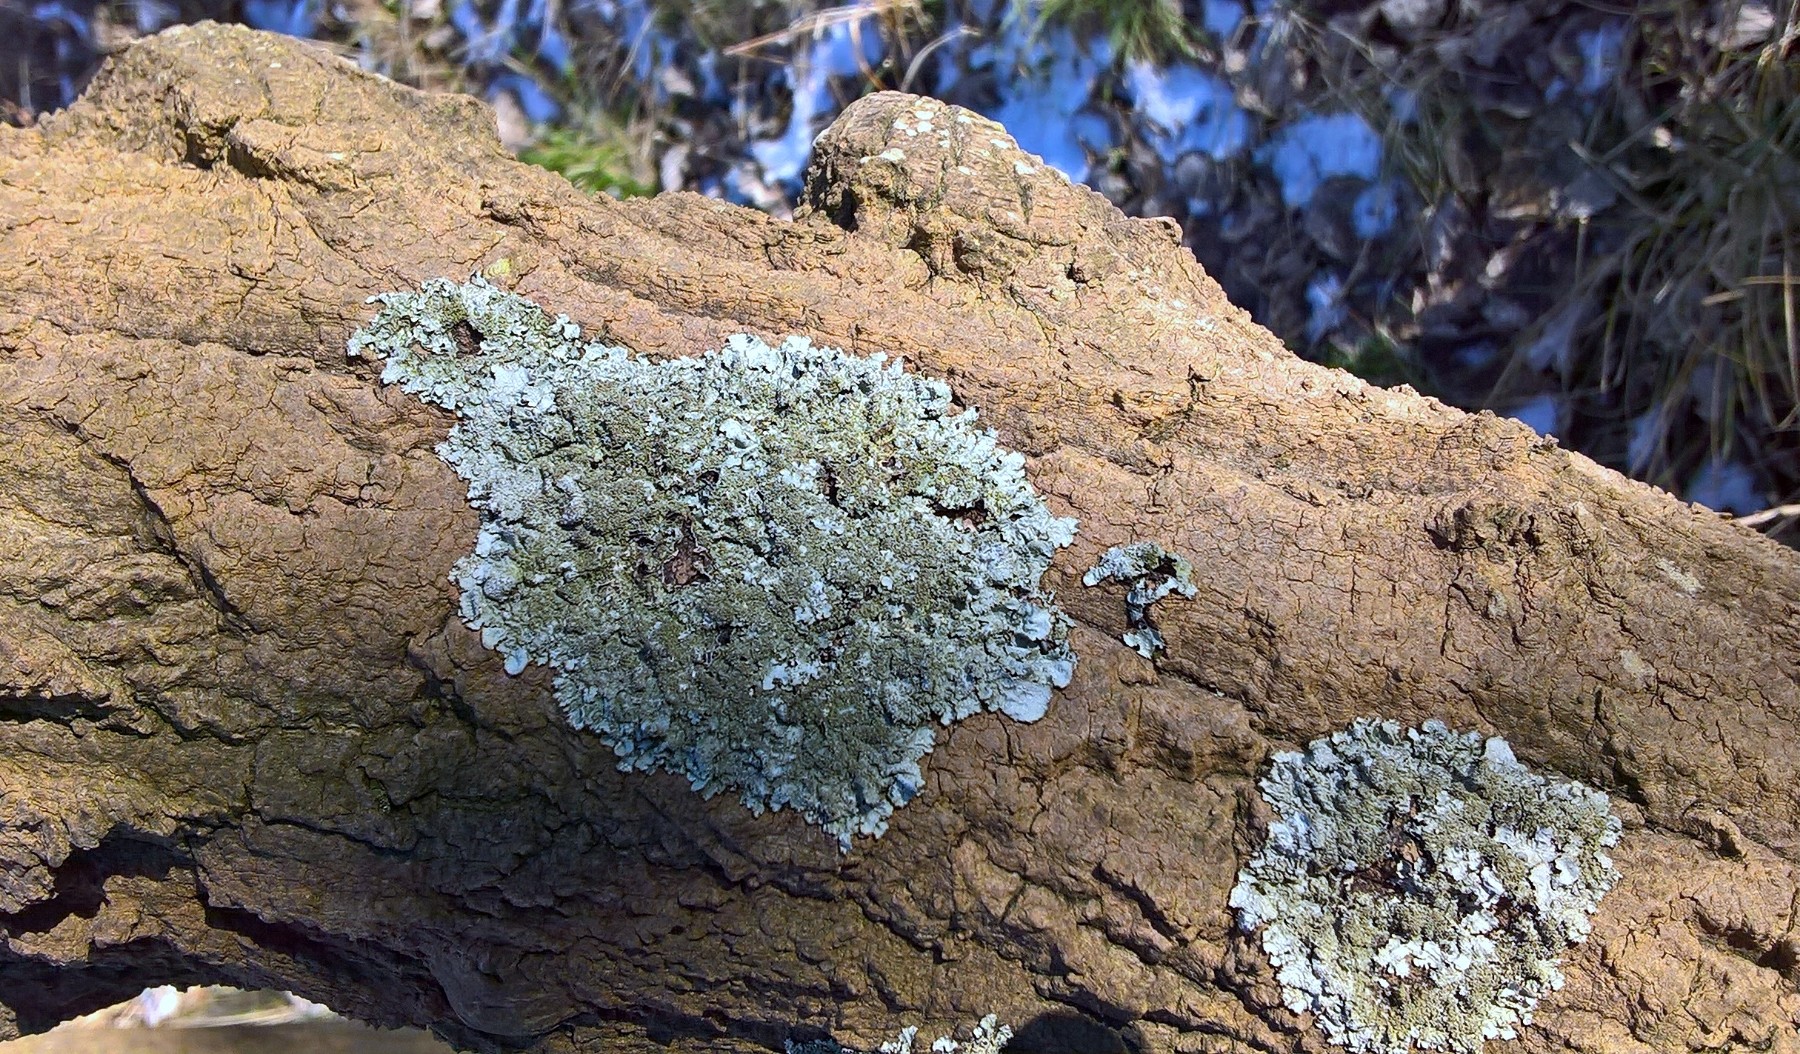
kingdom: Fungi
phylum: Ascomycota
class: Lecanoromycetes
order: Lecanorales
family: Parmeliaceae
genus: Parmelia
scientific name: Parmelia saxatilis
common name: farve-skållav
